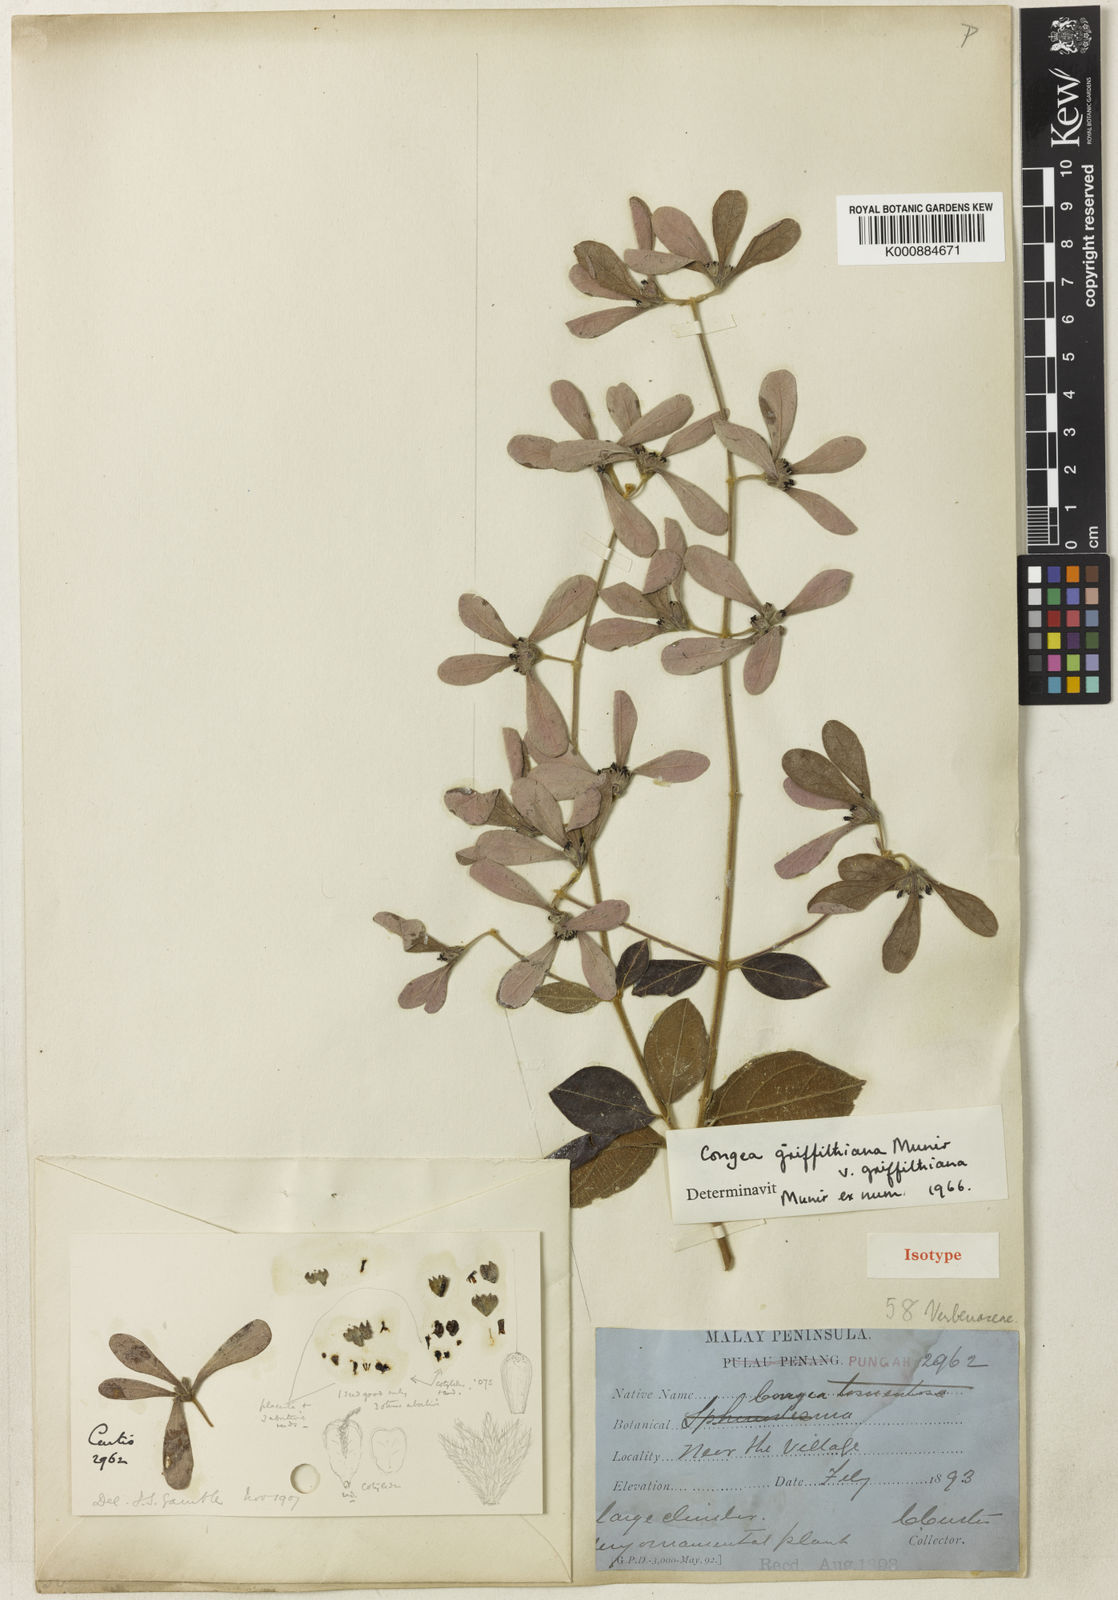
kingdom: Plantae
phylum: Tracheophyta
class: Magnoliopsida
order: Lamiales
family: Lamiaceae
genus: Congea
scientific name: Congea griffithiana
